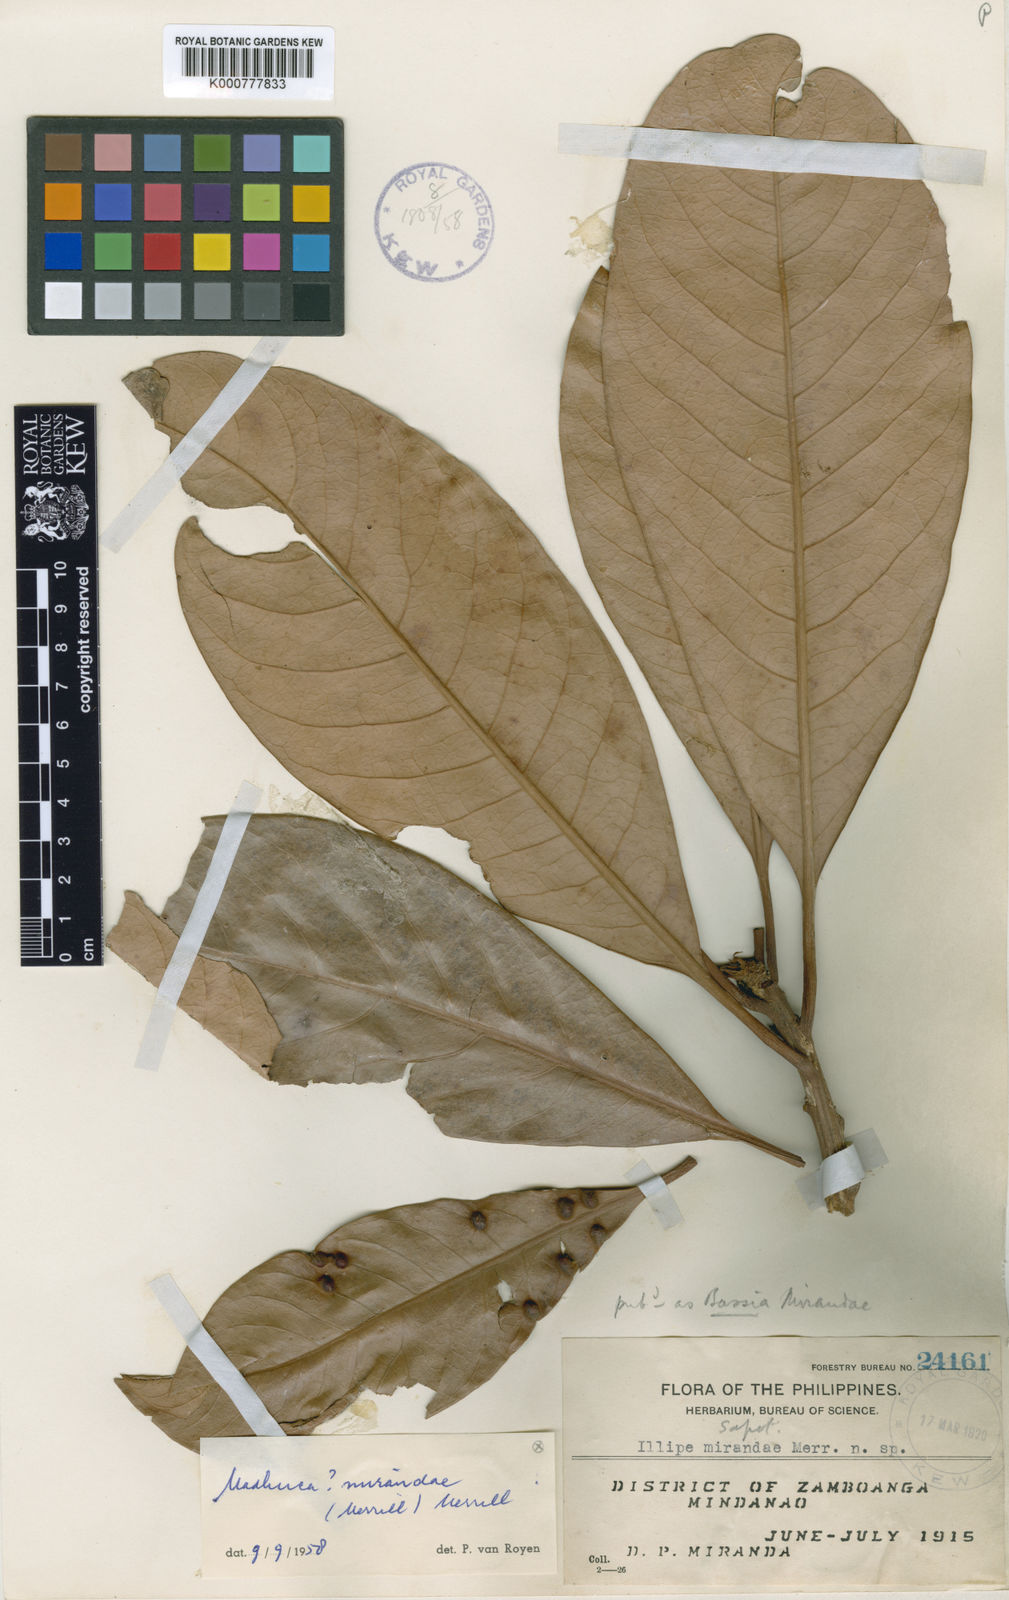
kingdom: Plantae
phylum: Tracheophyta
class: Magnoliopsida
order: Ericales
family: Sapotaceae
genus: Madhuca
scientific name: Madhuca mirandae
